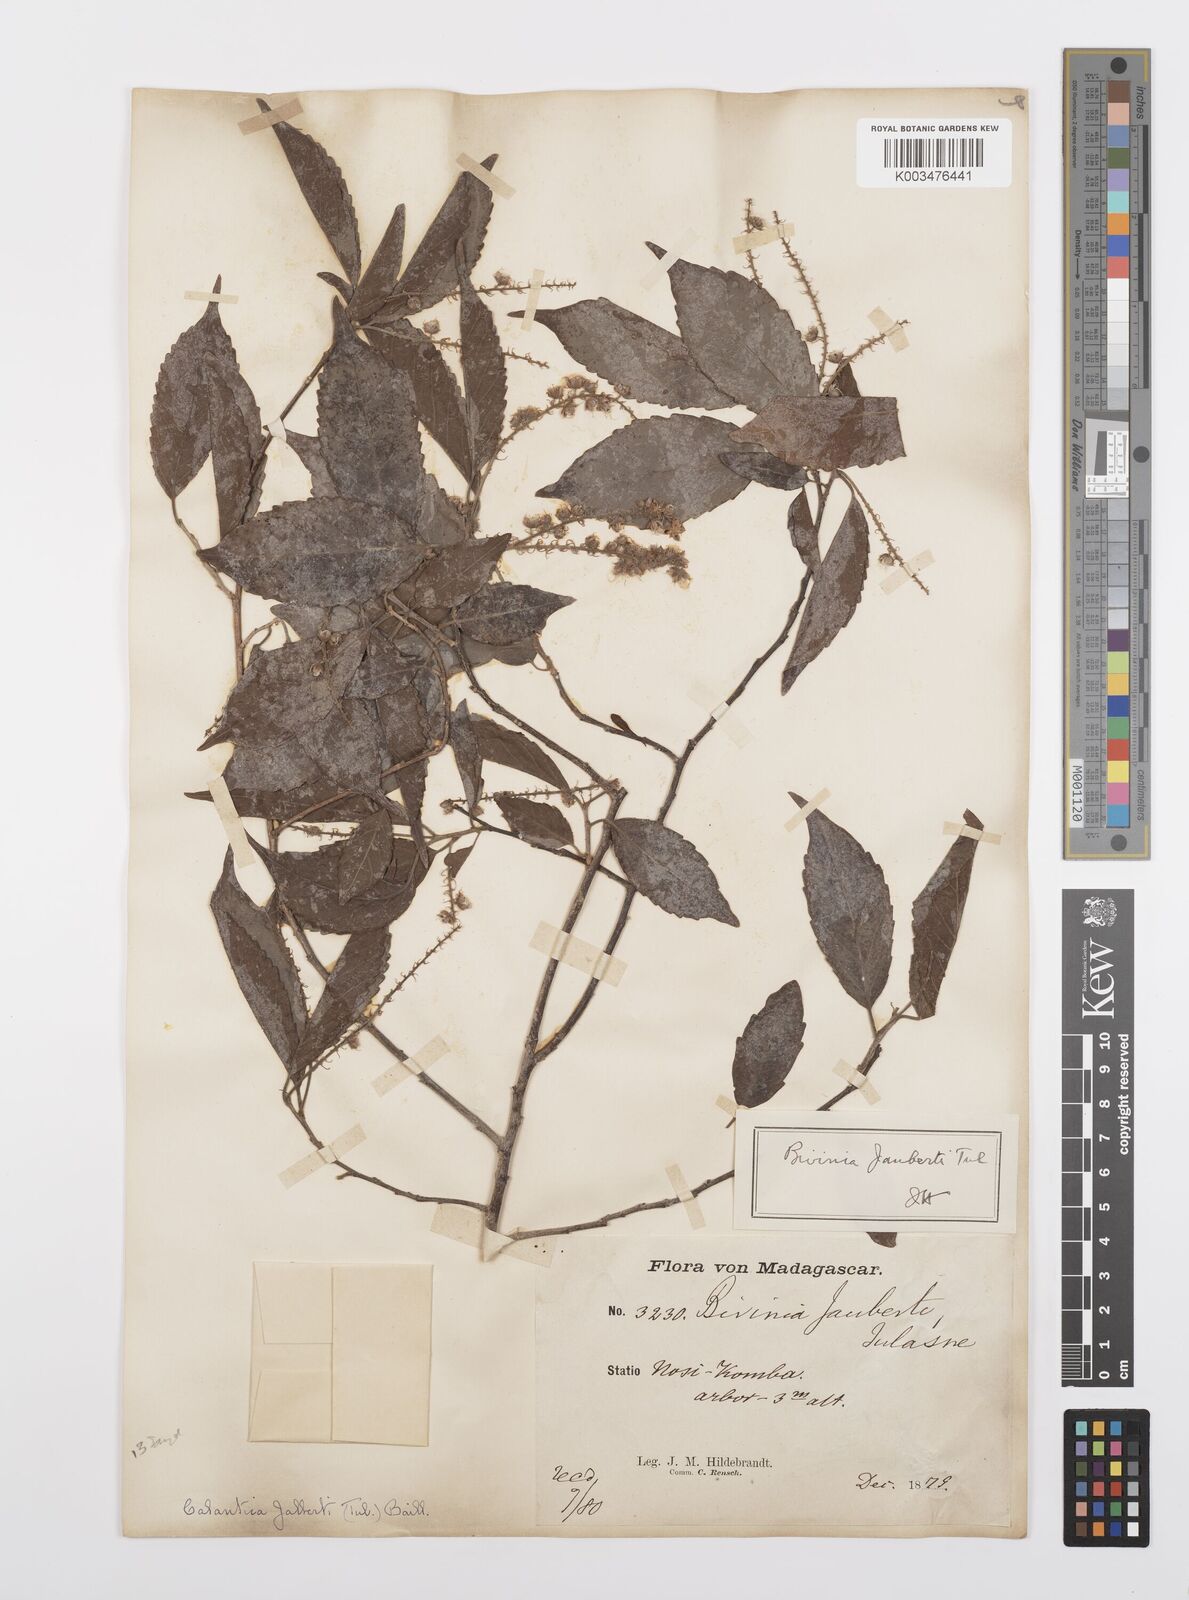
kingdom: Plantae
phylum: Tracheophyta
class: Magnoliopsida
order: Malpighiales
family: Salicaceae
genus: Bivinia
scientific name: Bivinia jalbertii
